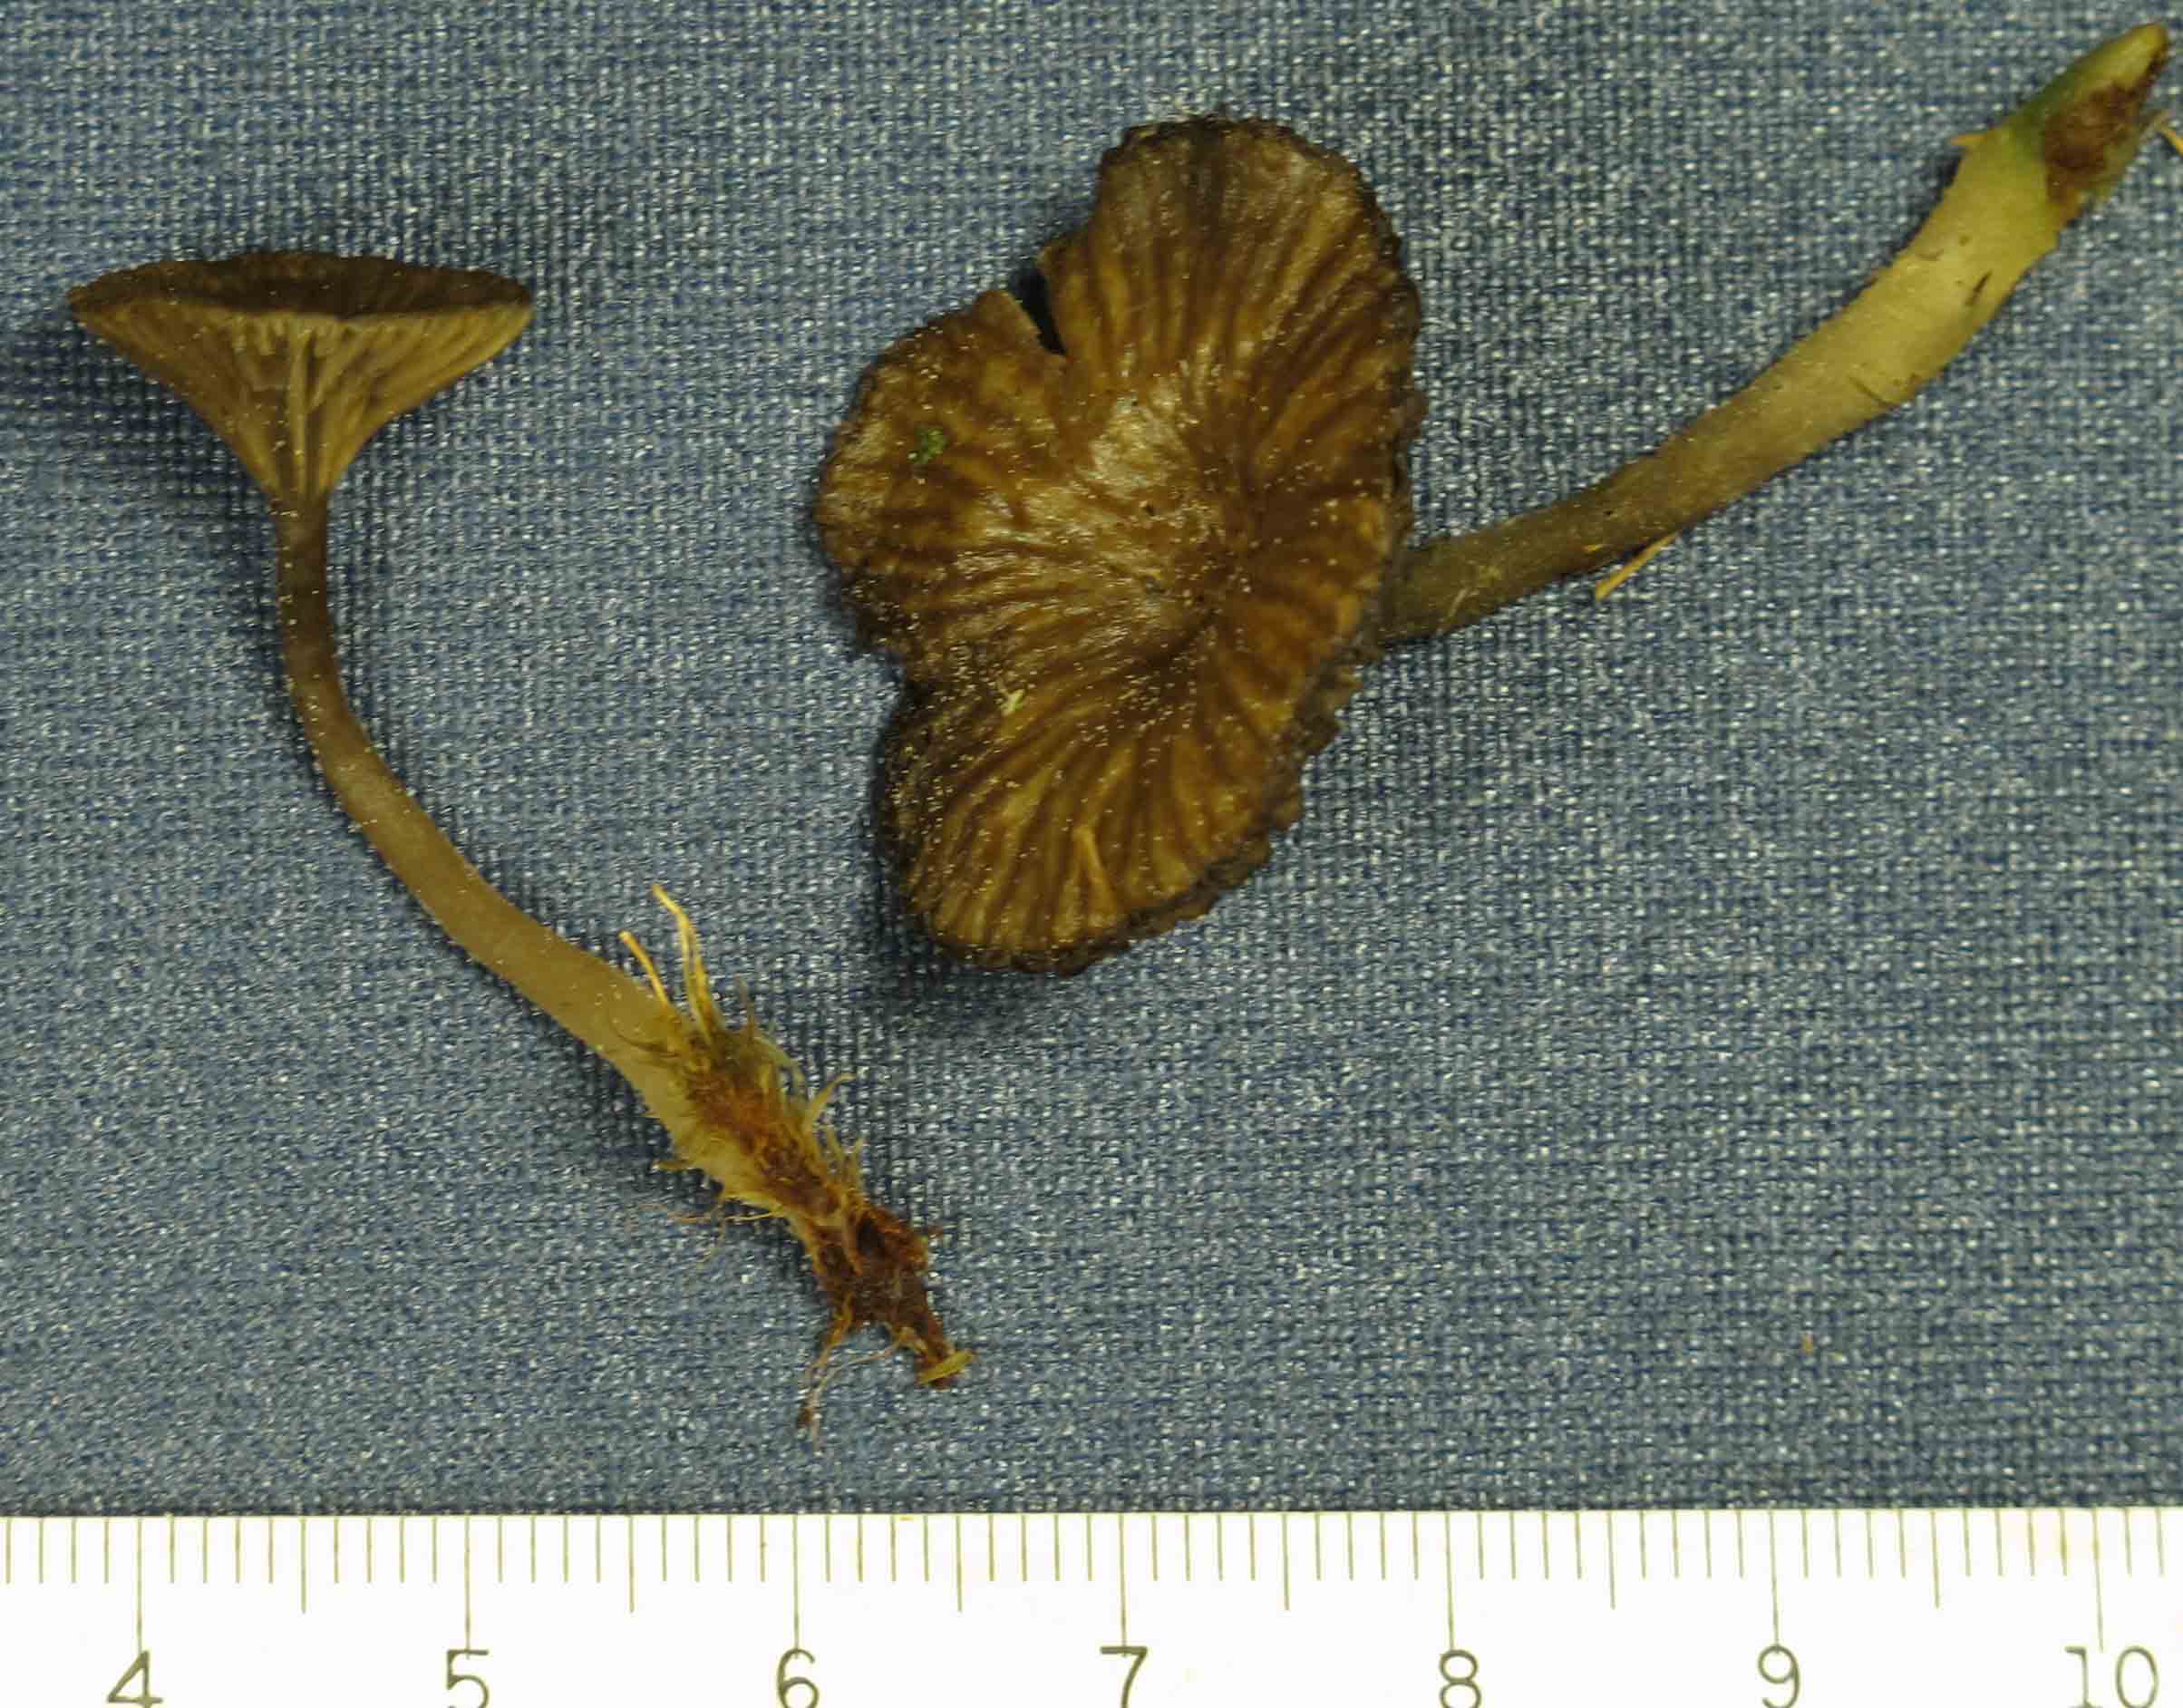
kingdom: Fungi
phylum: Basidiomycota
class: Agaricomycetes
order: Agaricales
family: Hygrophoraceae
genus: Arrhenia
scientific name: Arrhenia gerardiana
